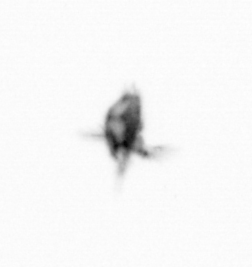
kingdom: Animalia
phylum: Arthropoda
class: Copepoda
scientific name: Copepoda
